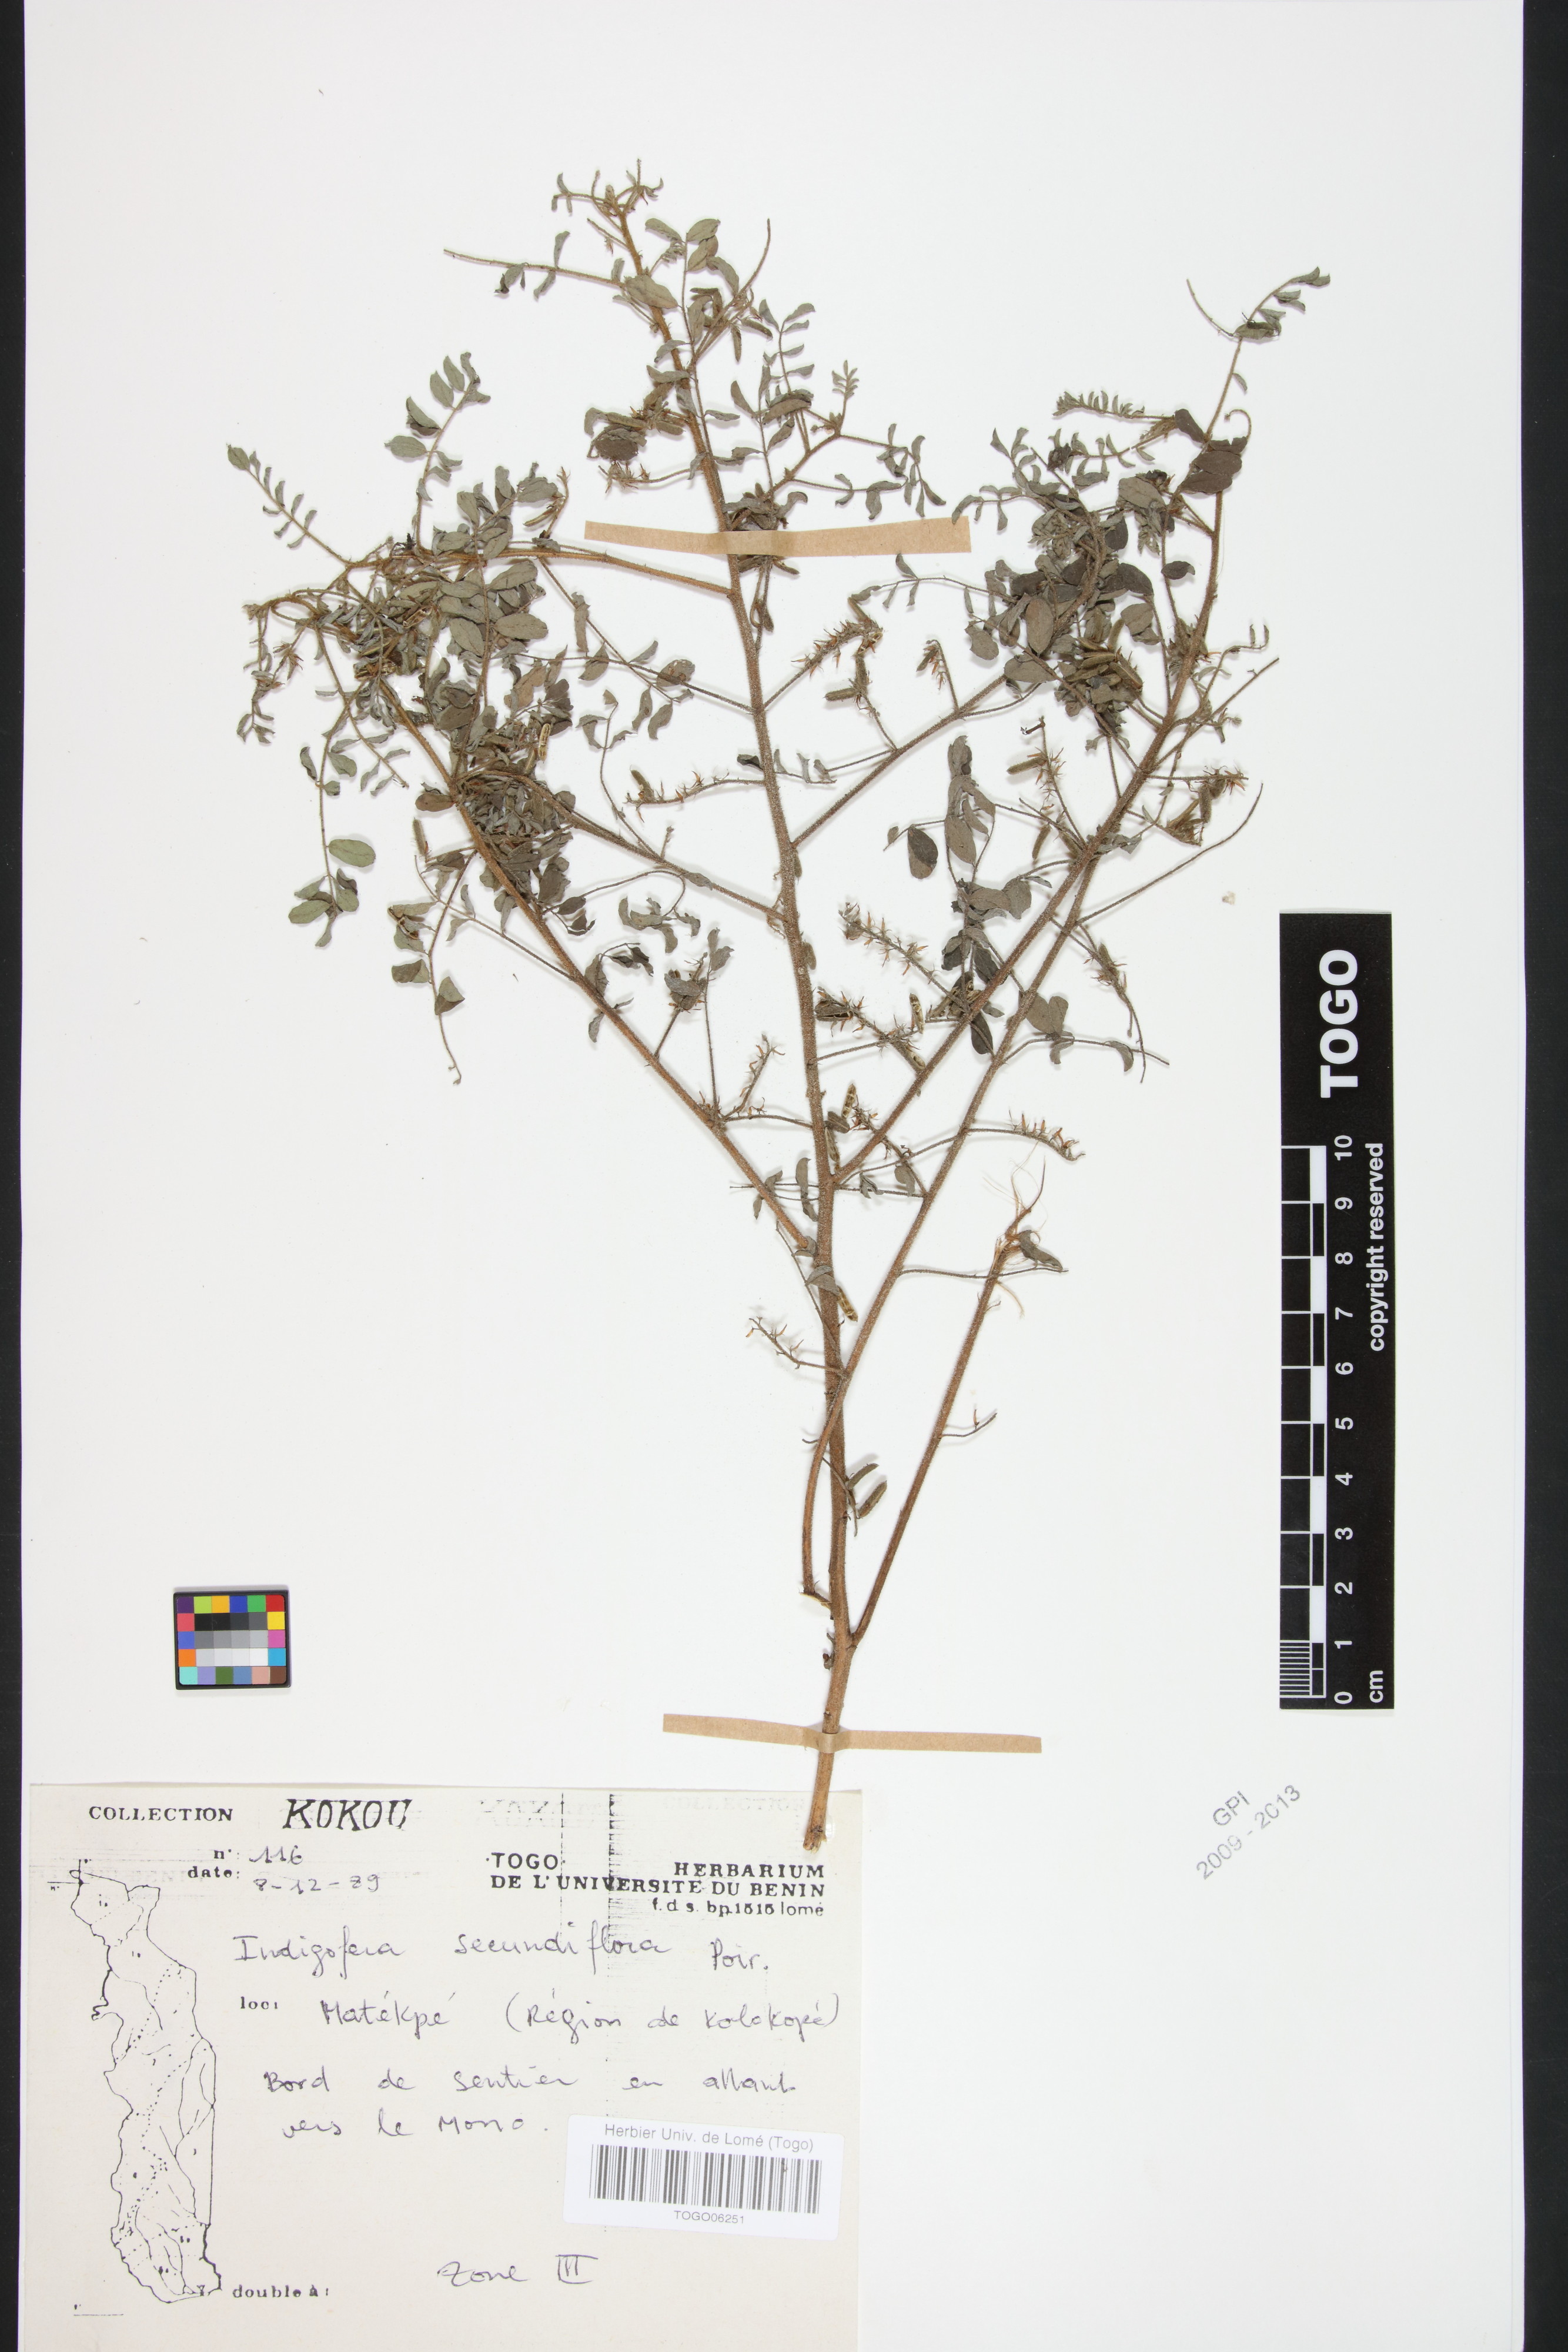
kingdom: Plantae
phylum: Tracheophyta
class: Magnoliopsida
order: Fabales
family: Fabaceae
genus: Indigofera
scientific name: Indigofera secundiflora
